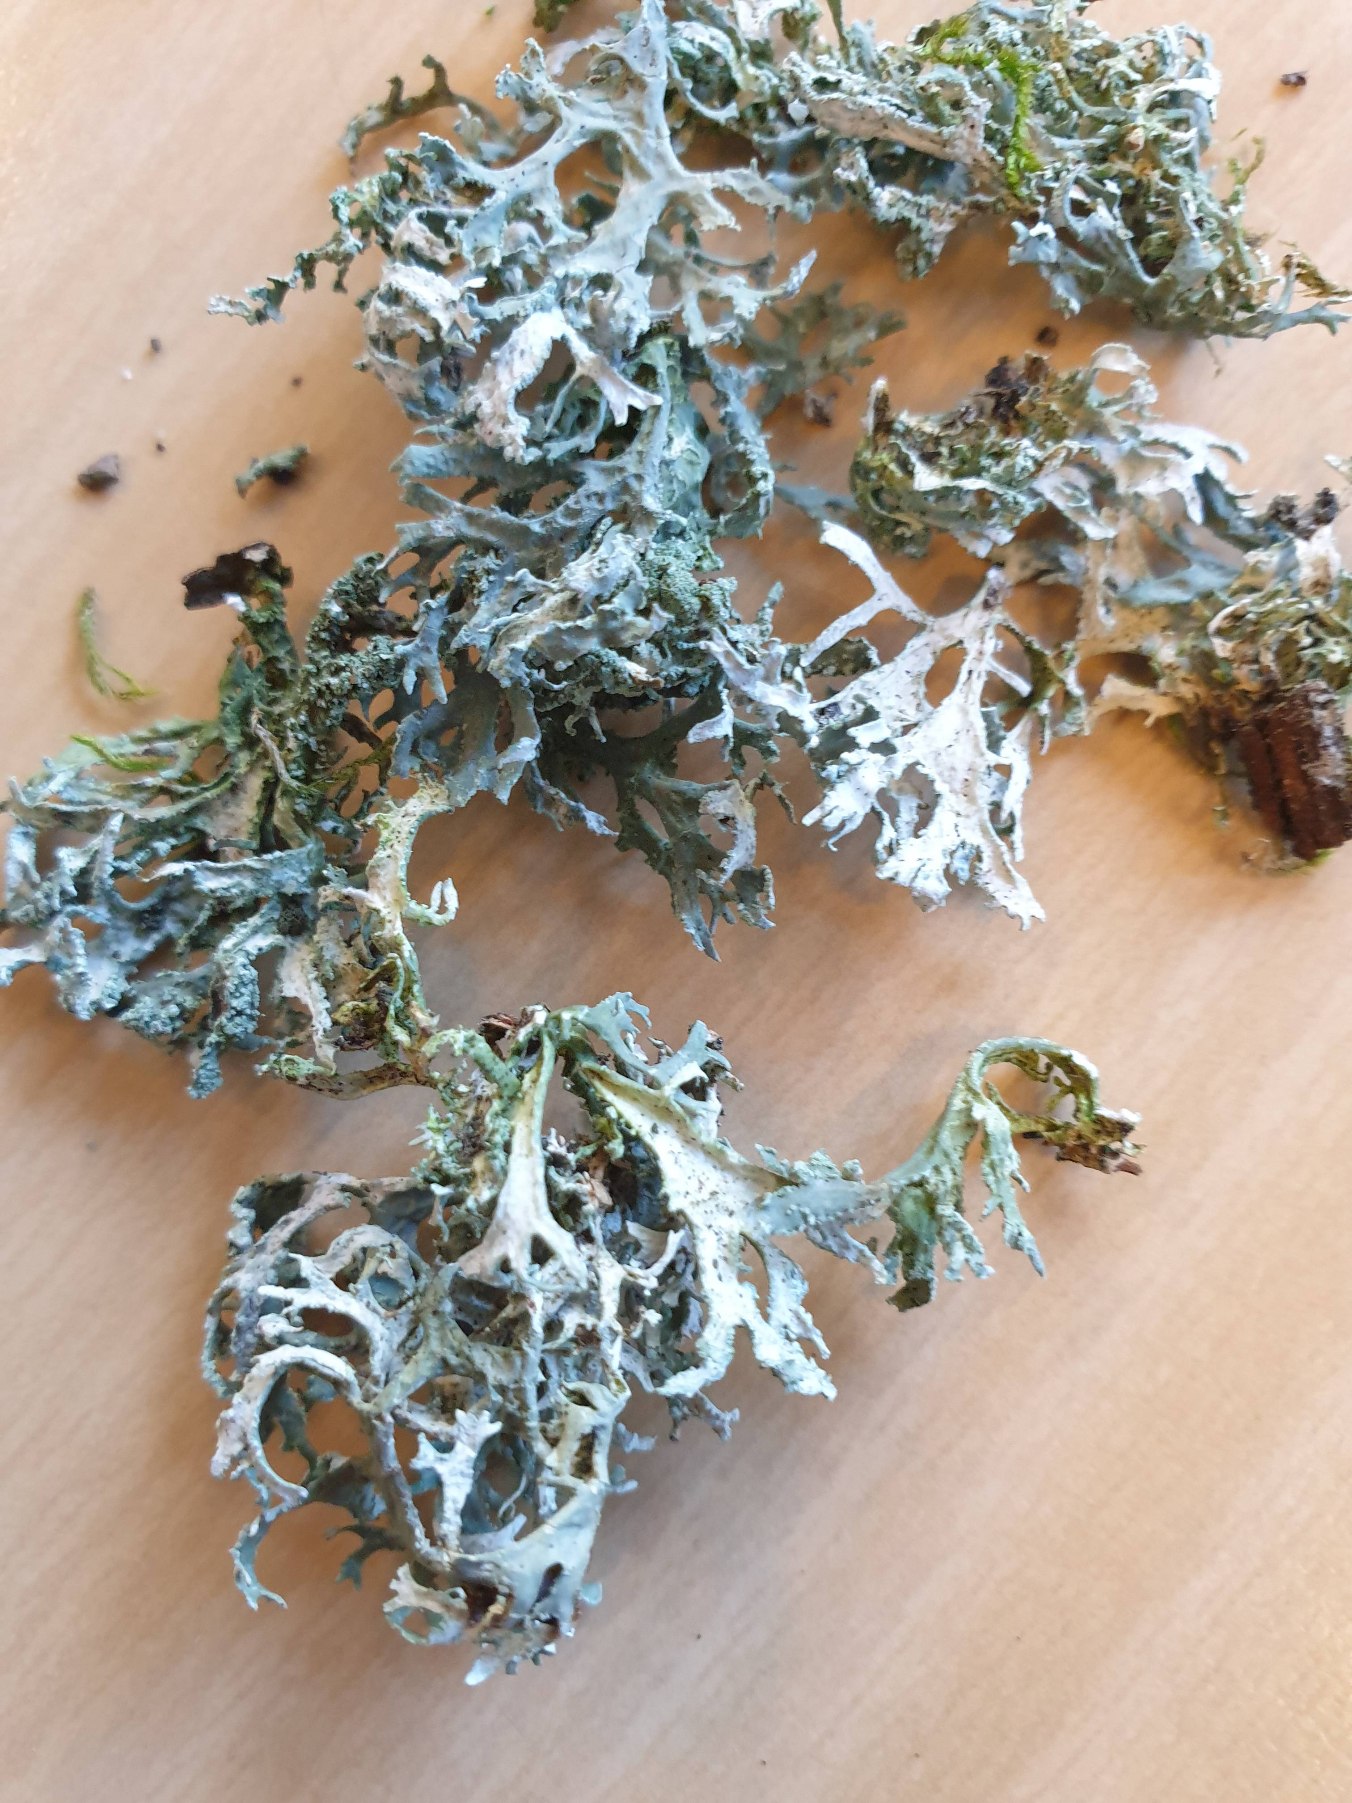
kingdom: Fungi
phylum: Ascomycota
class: Lecanoromycetes
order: Lecanorales
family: Parmeliaceae
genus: Evernia
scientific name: Evernia prunastri
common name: Almindelig slåenlav
